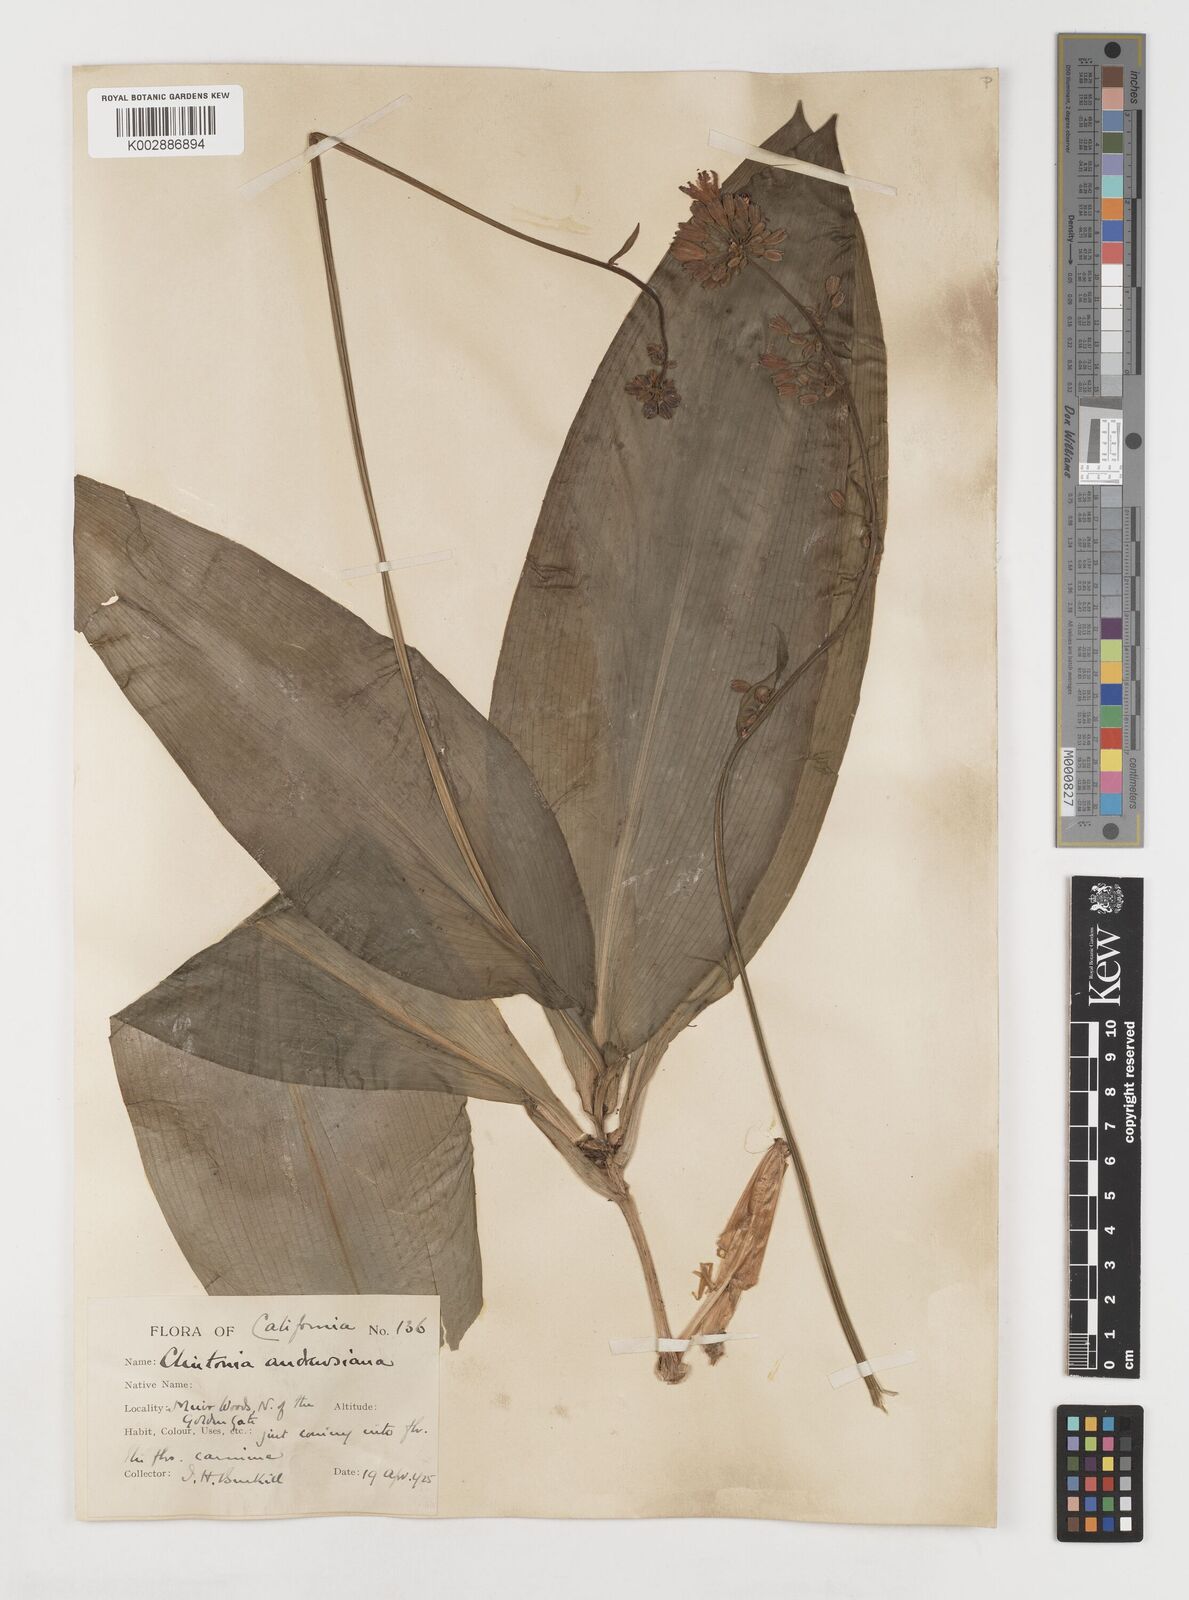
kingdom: Plantae
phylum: Tracheophyta
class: Liliopsida
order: Liliales
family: Liliaceae
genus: Clintonia
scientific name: Clintonia andrewsiana
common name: Red clintonia
